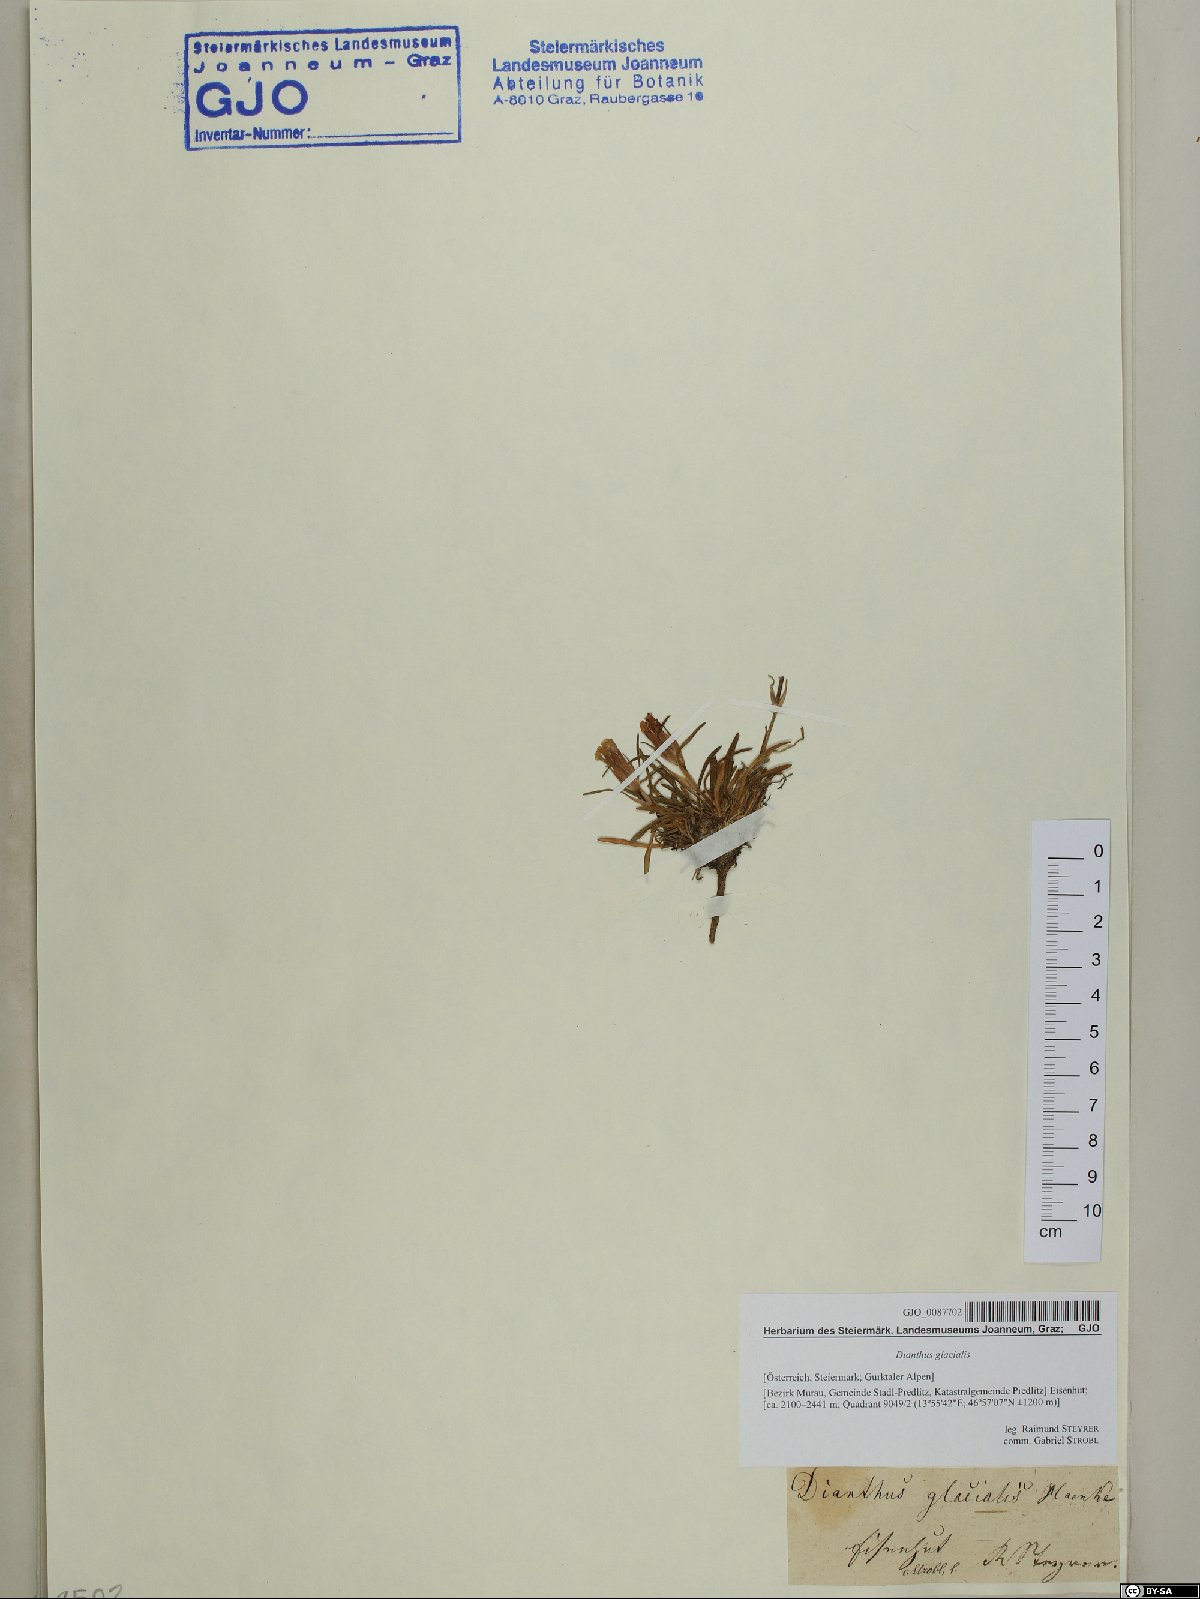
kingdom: Plantae
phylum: Tracheophyta
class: Magnoliopsida
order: Caryophyllales
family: Caryophyllaceae
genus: Dianthus
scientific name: Dianthus glacialis
